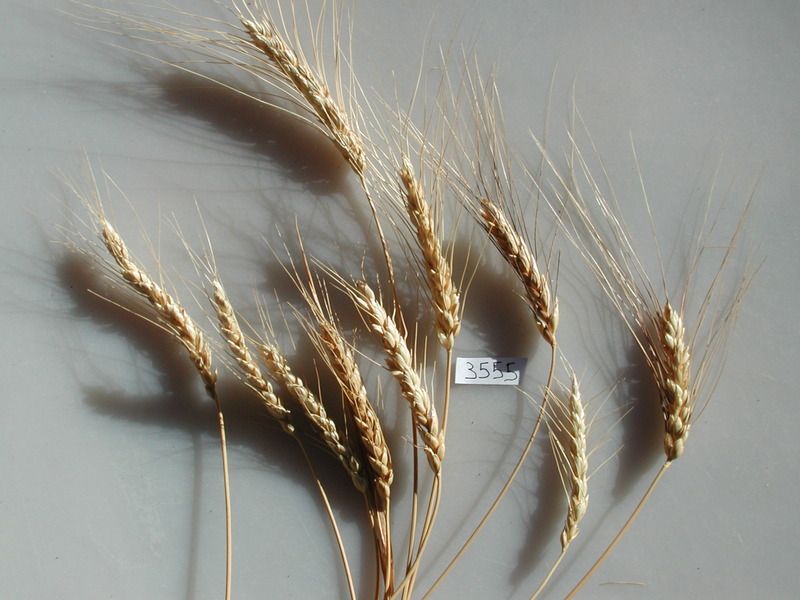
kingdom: Plantae
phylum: Tracheophyta
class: Liliopsida
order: Poales
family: Poaceae
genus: Triticum
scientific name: Triticum monococcum
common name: Wheat
